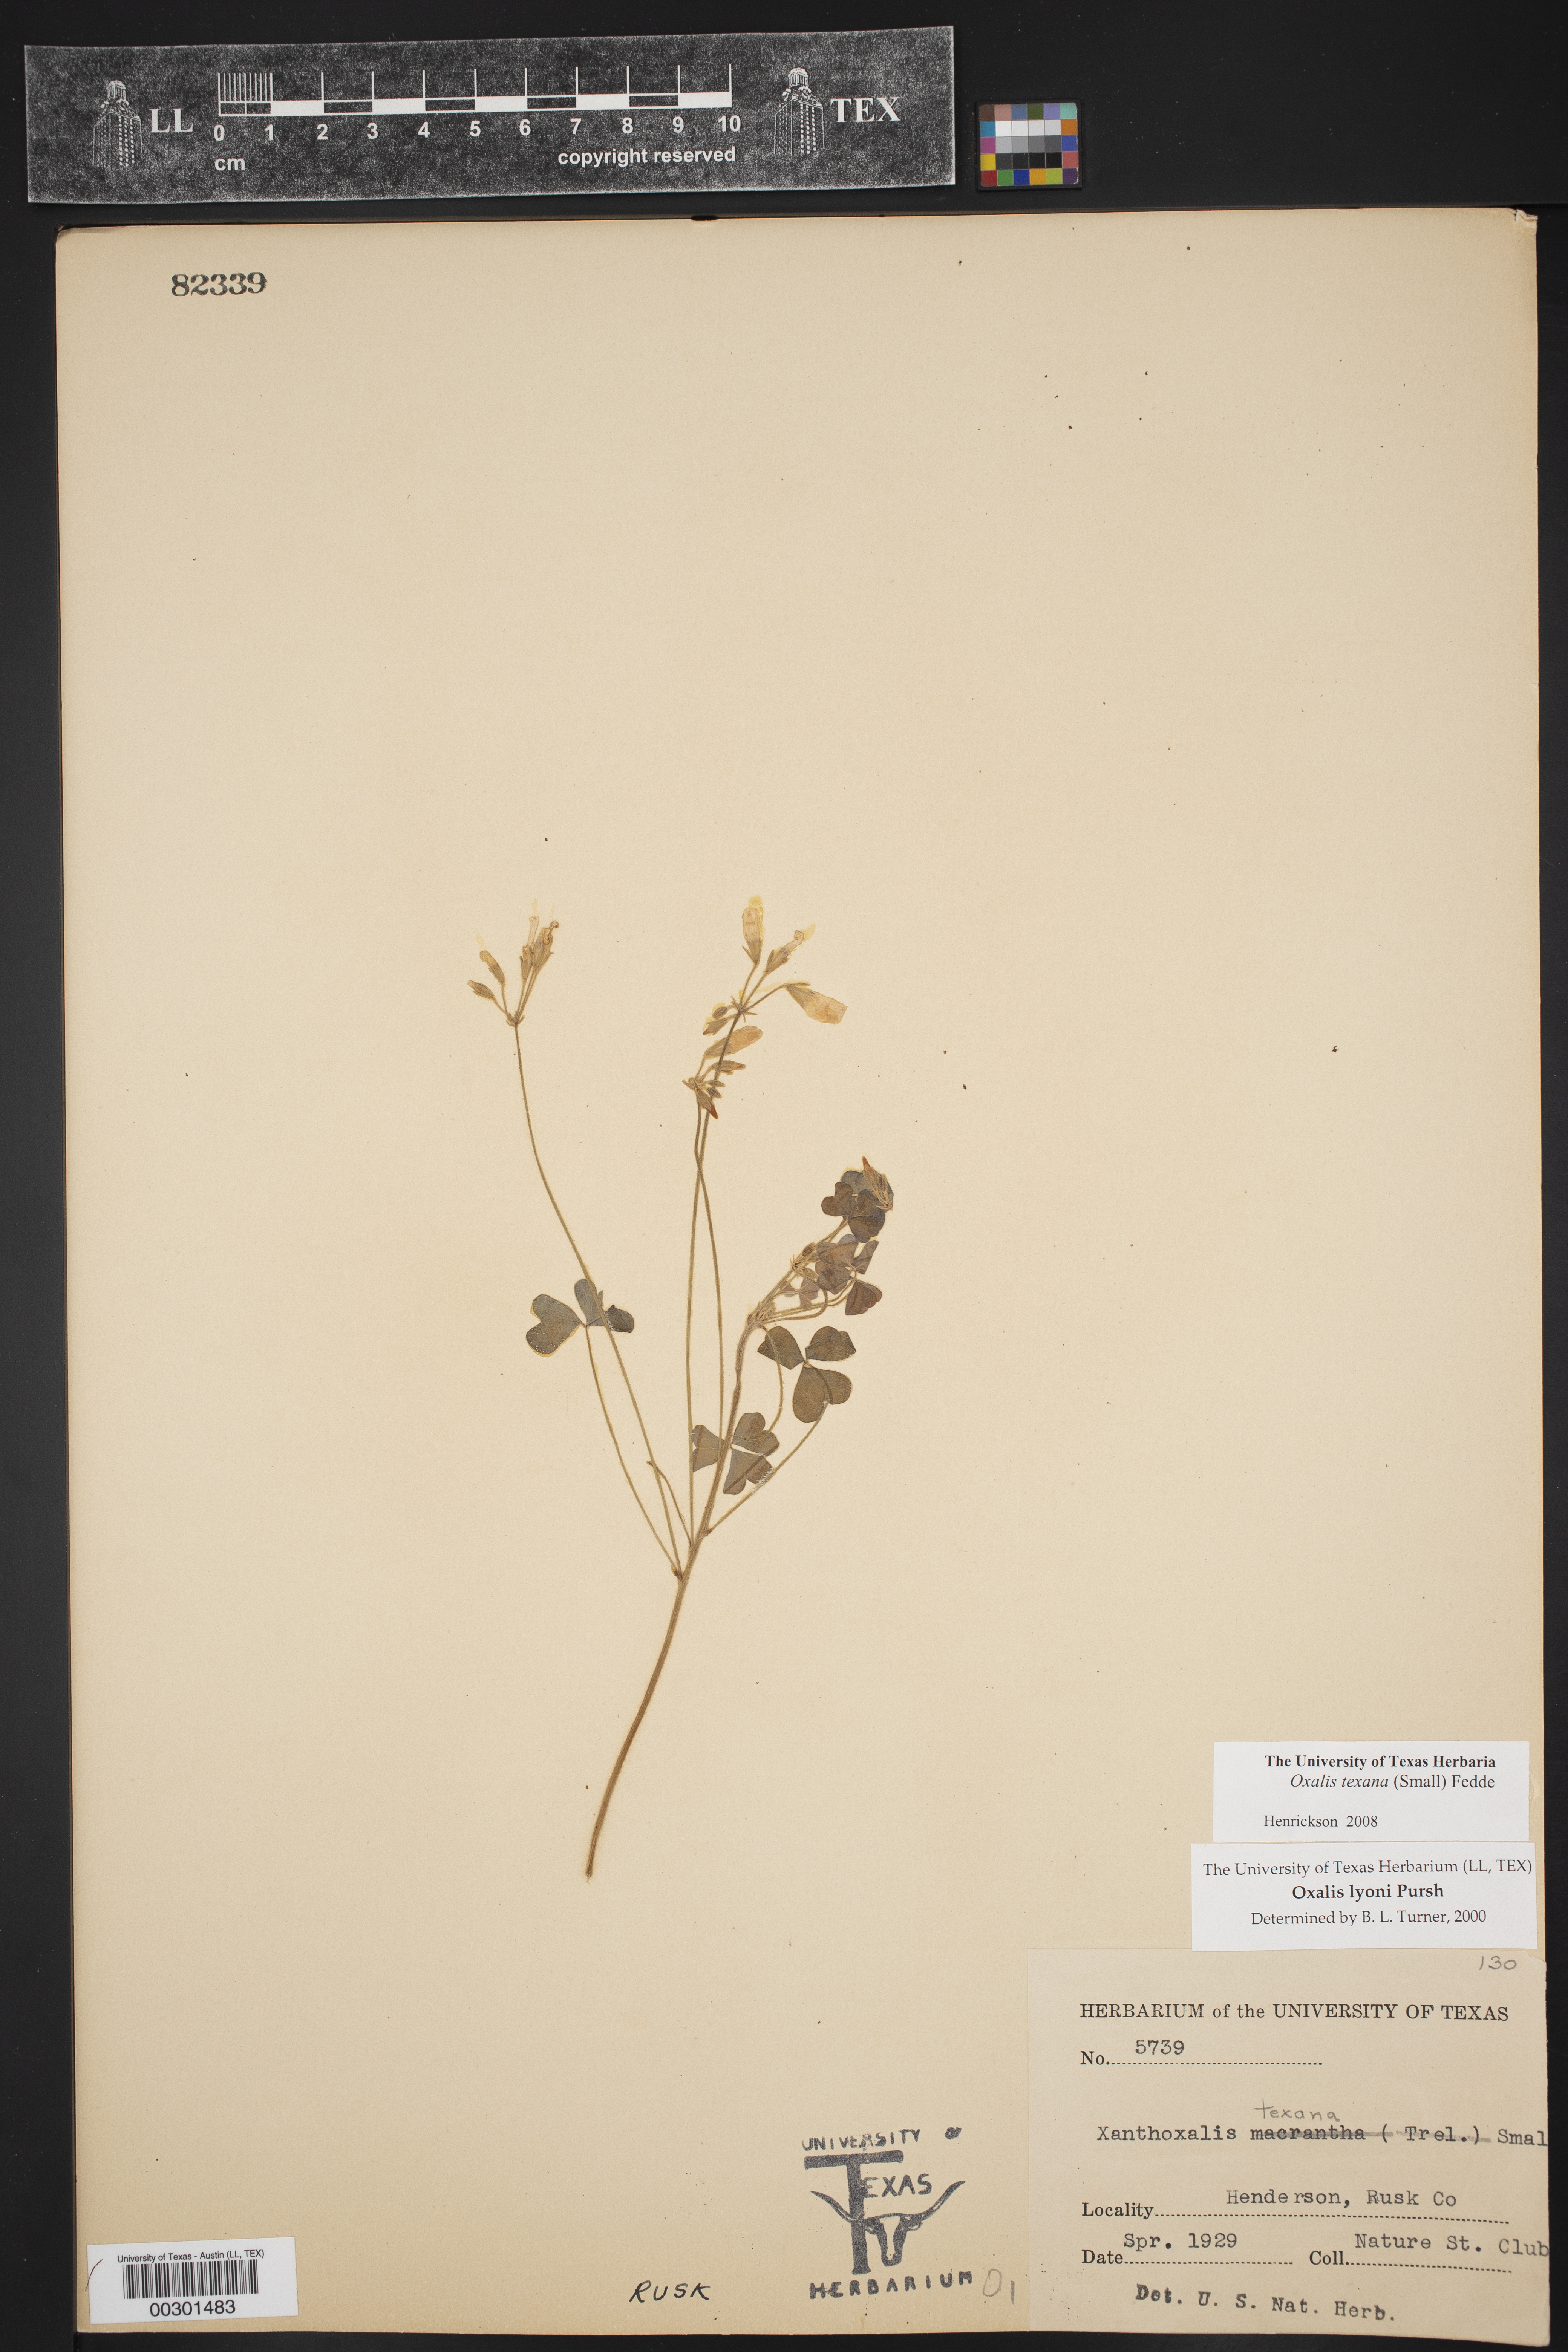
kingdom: Plantae
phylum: Tracheophyta
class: Magnoliopsida
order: Oxalidales
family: Oxalidaceae
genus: Oxalis
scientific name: Oxalis texana
